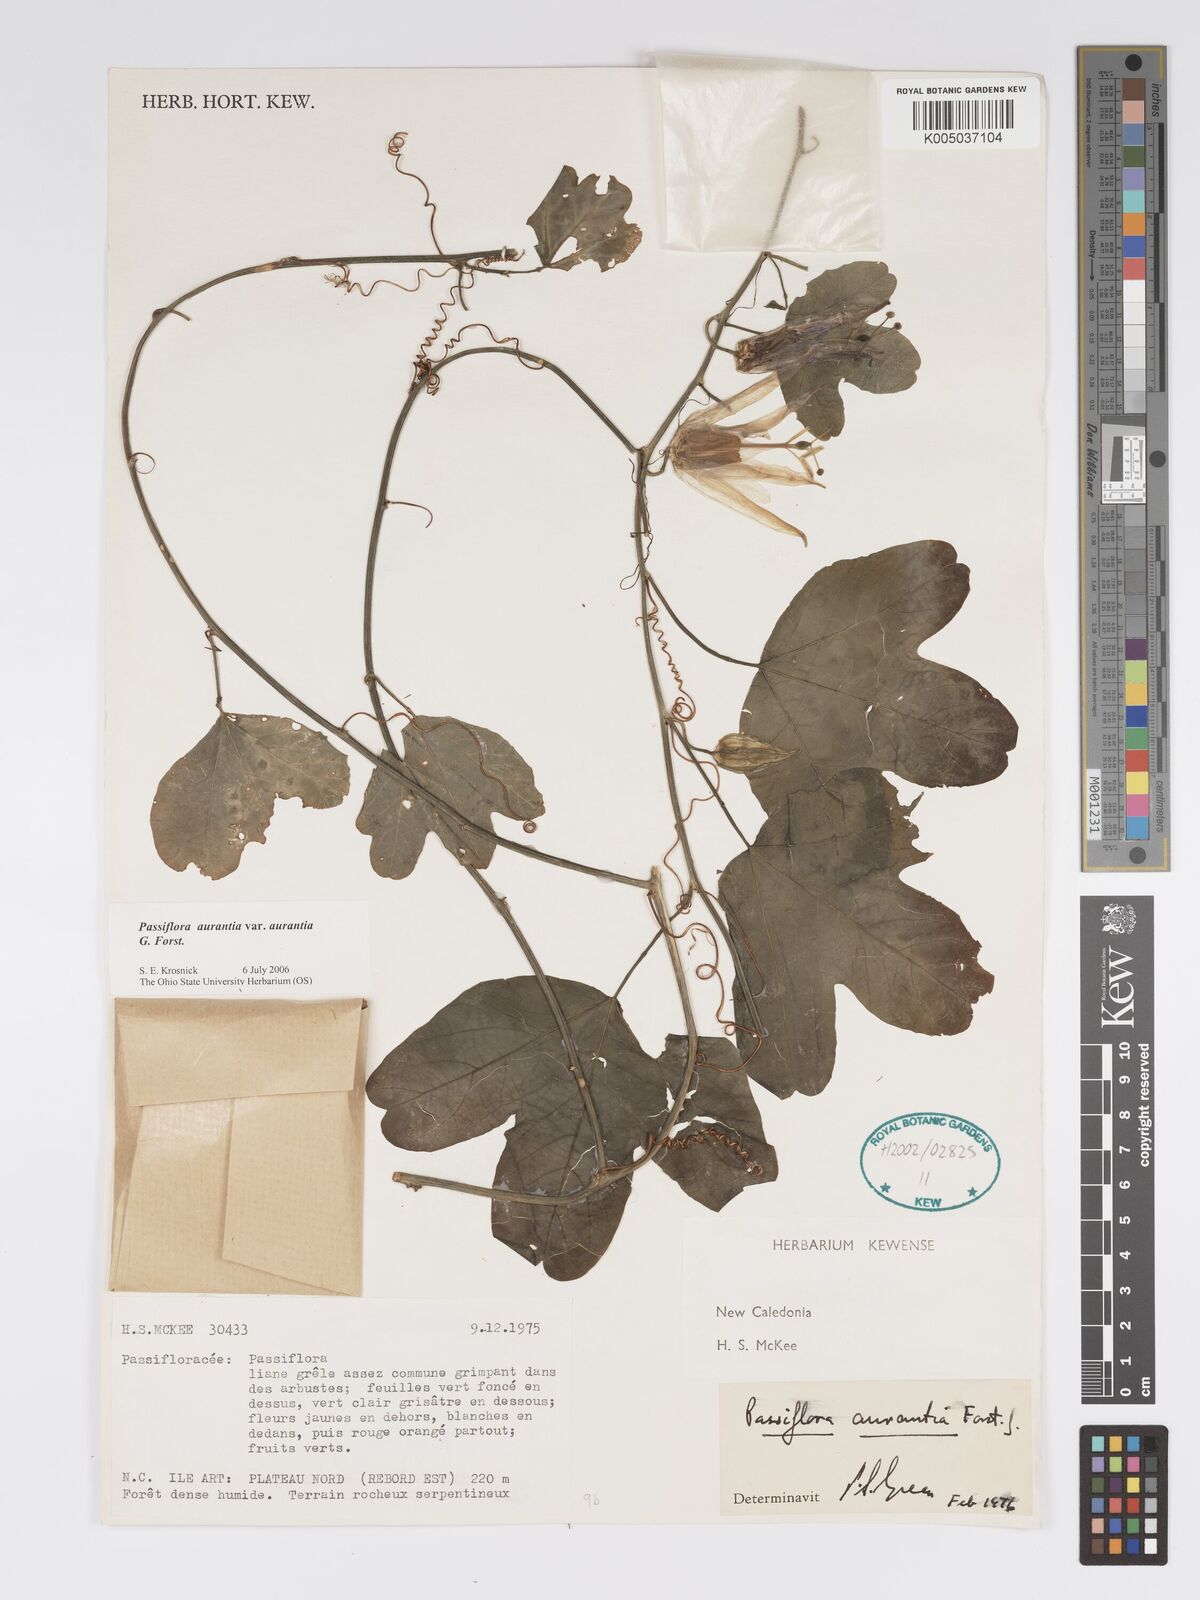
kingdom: Plantae
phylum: Tracheophyta
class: Magnoliopsida
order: Malpighiales
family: Passifloraceae
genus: Passiflora
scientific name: Passiflora aurantia
